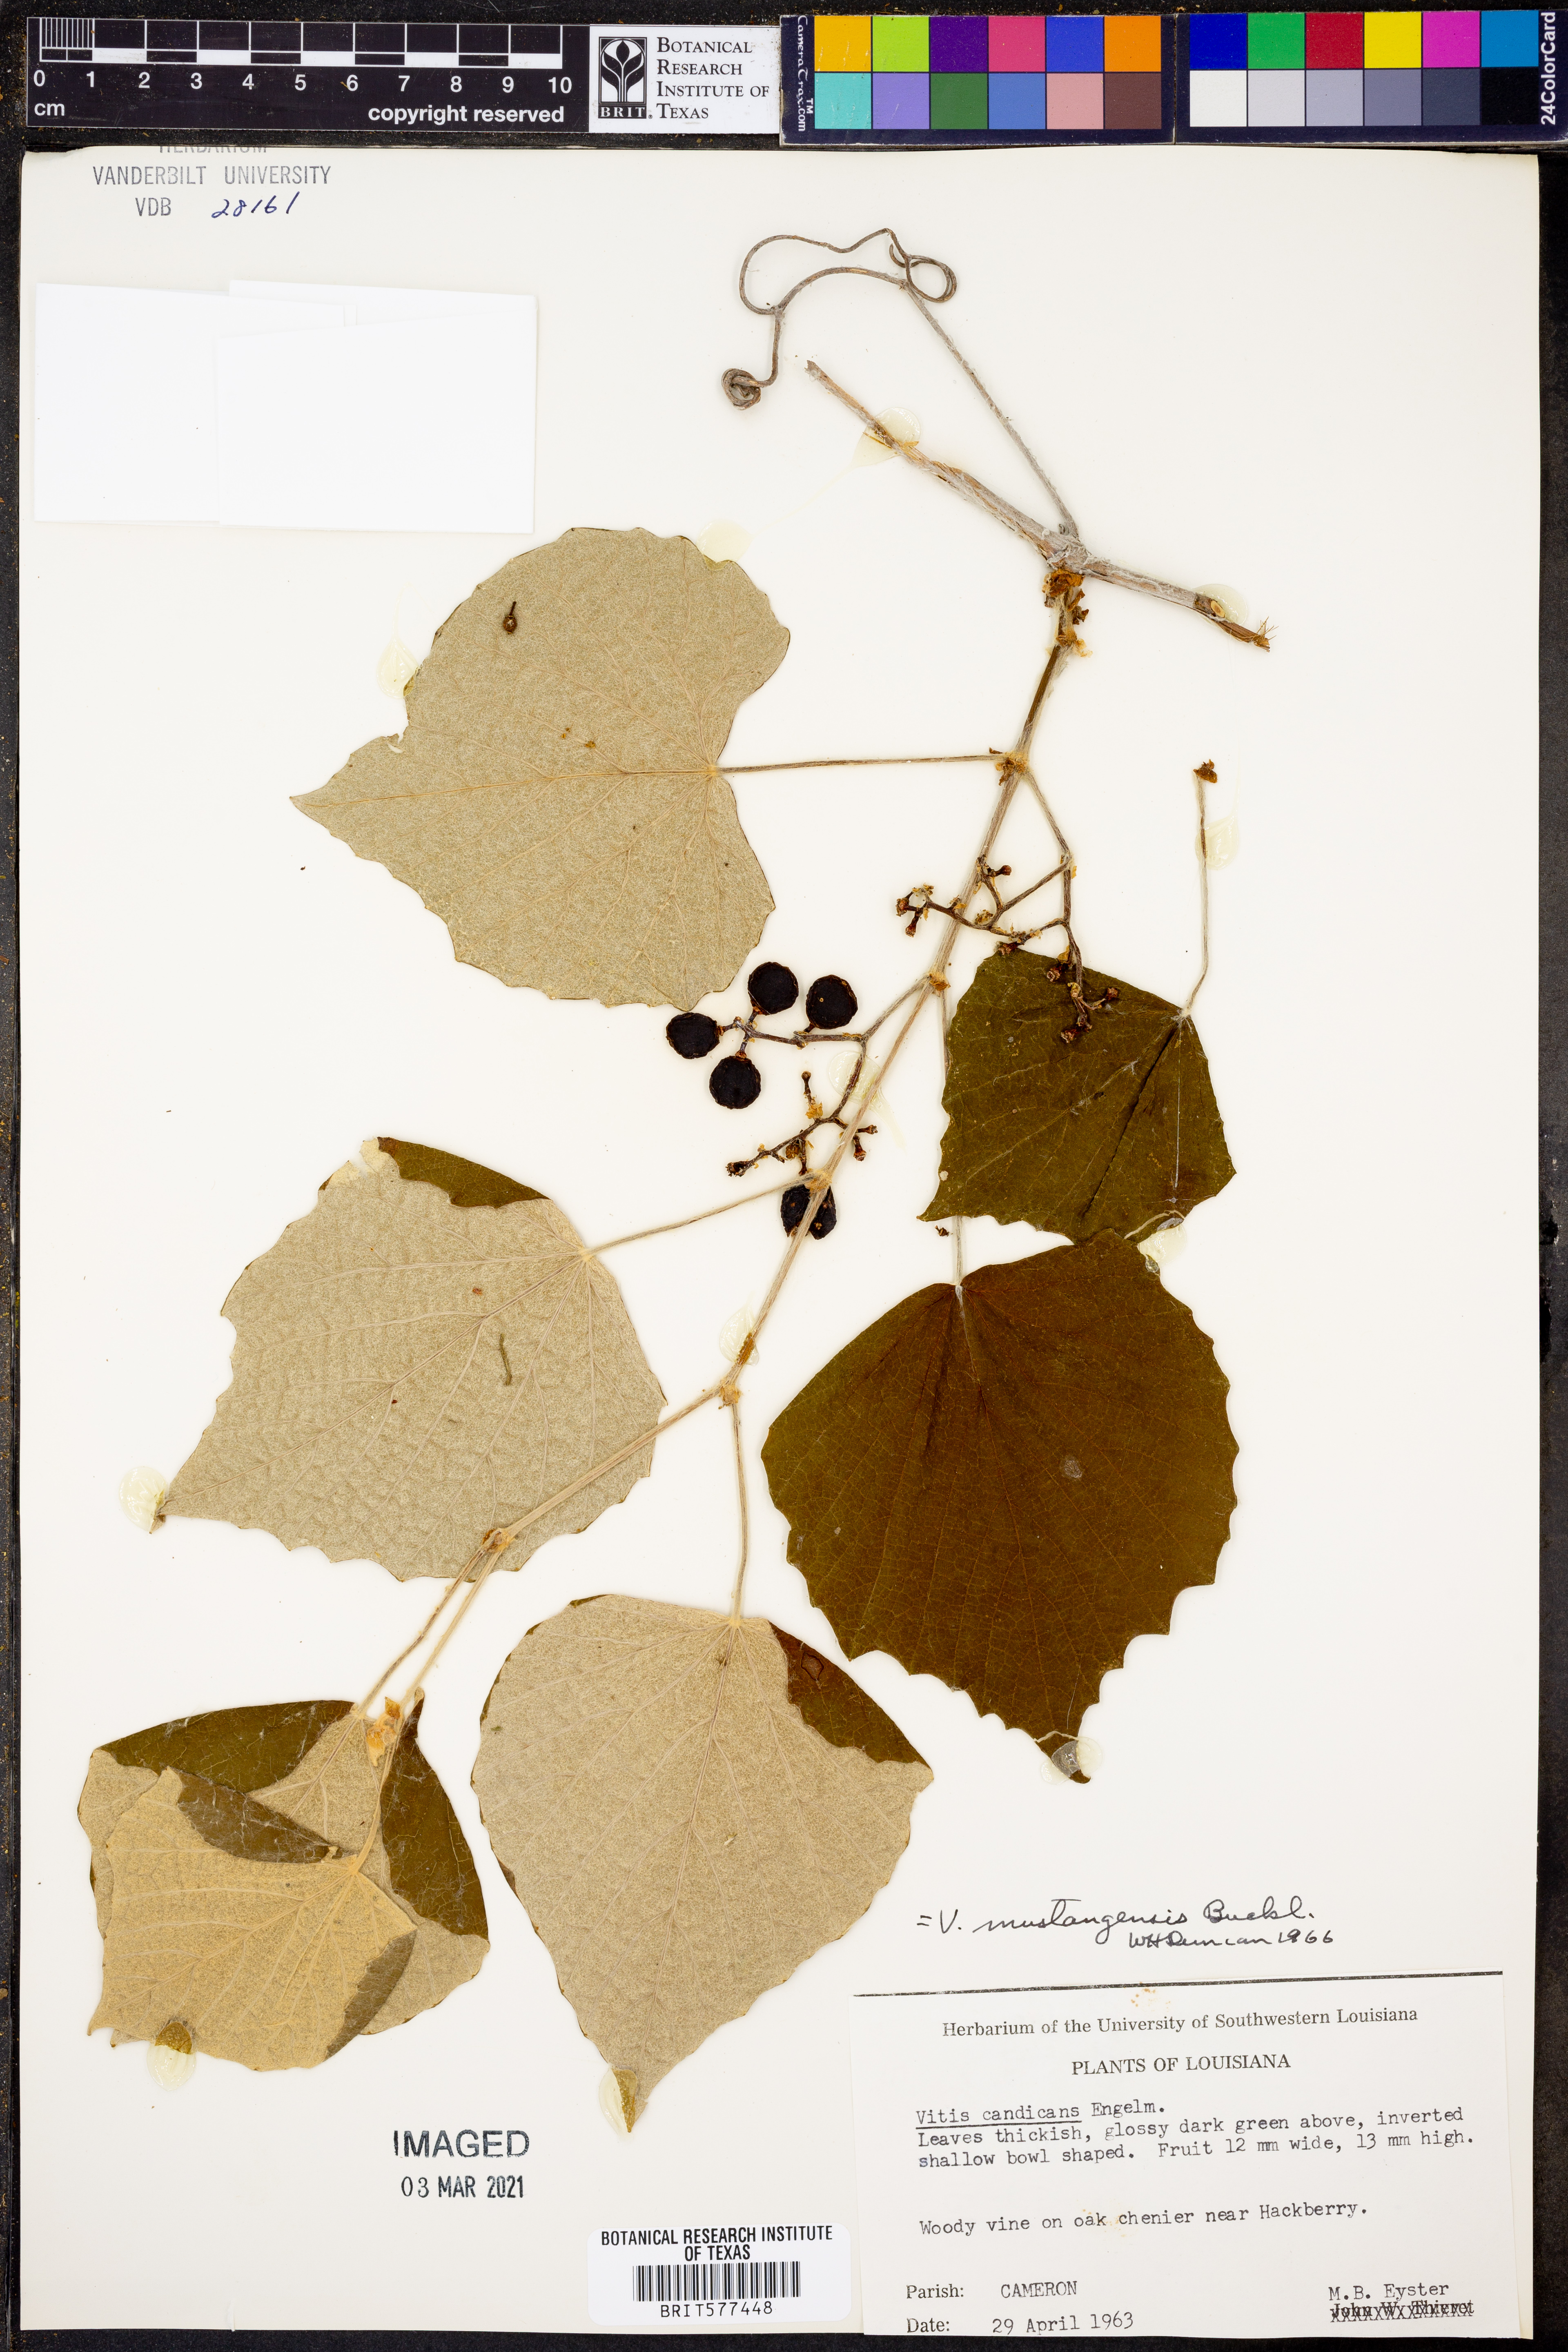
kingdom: Plantae
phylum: Tracheophyta
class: Magnoliopsida
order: Vitales
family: Vitaceae
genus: Vitis
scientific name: Vitis mustangensis
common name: Mustang grape
